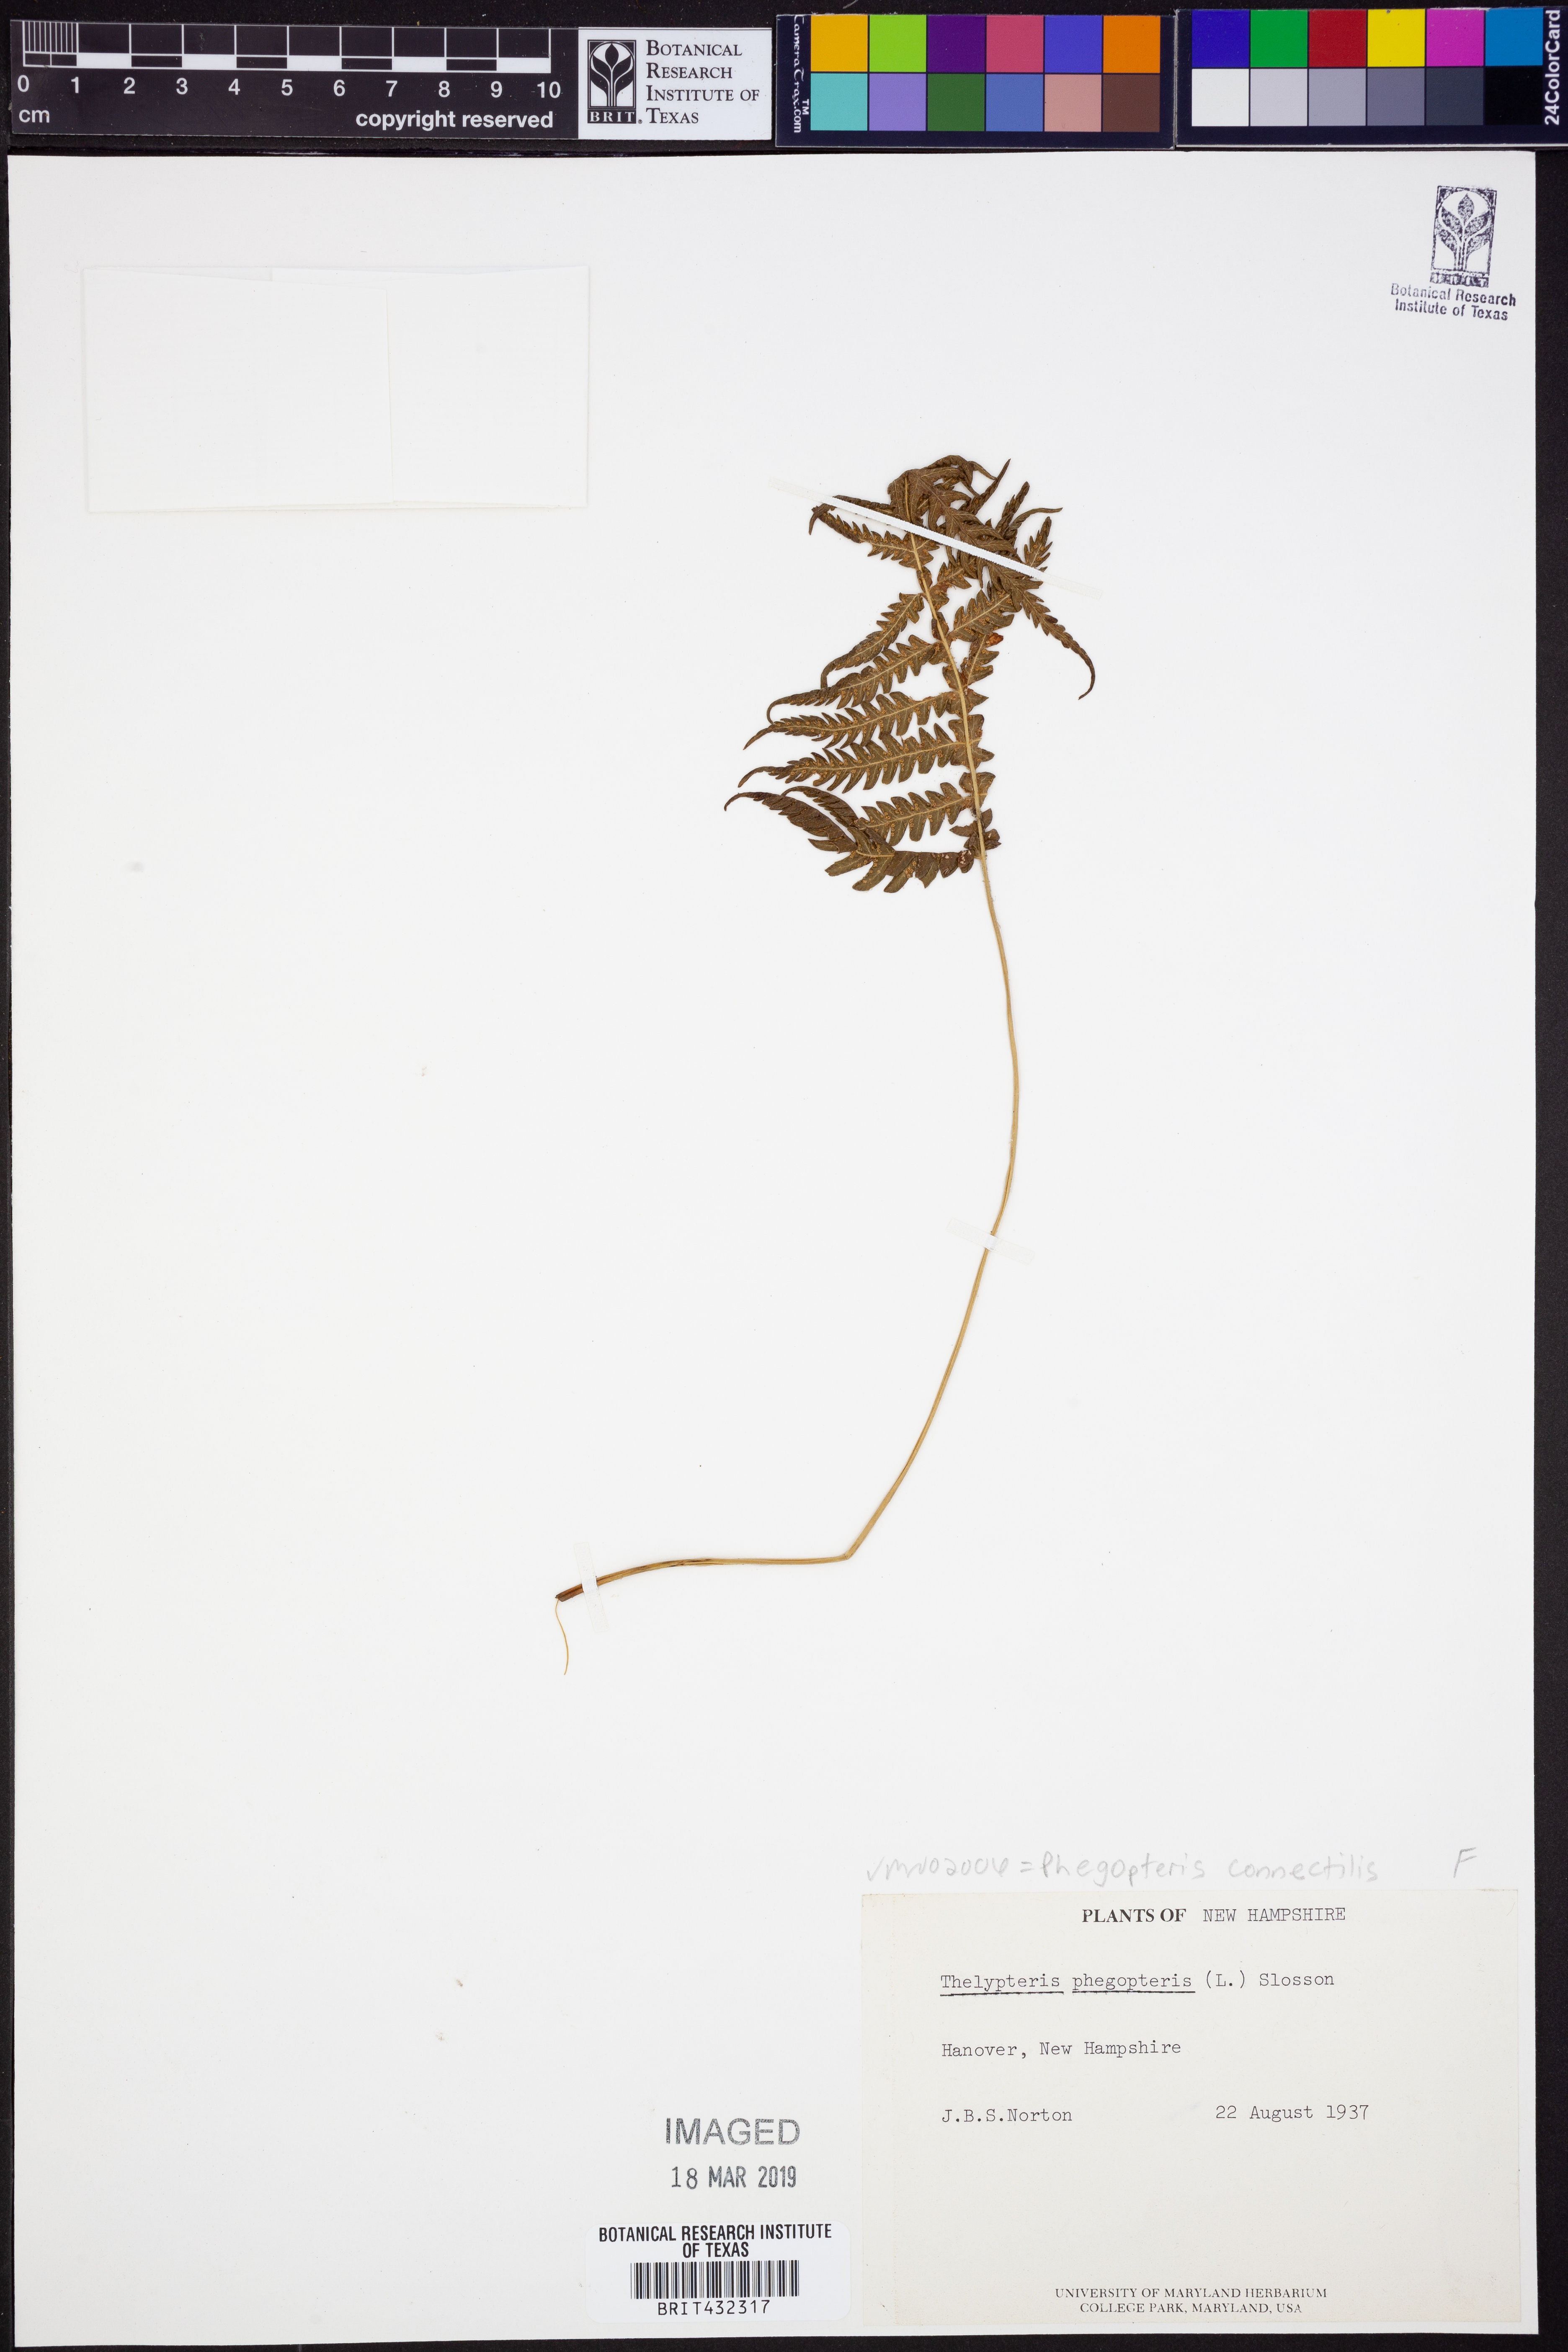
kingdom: Plantae
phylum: Tracheophyta
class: Polypodiopsida
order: Polypodiales
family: Thelypteridaceae
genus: Phegopteris
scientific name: Phegopteris connectilis
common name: Beech fern
